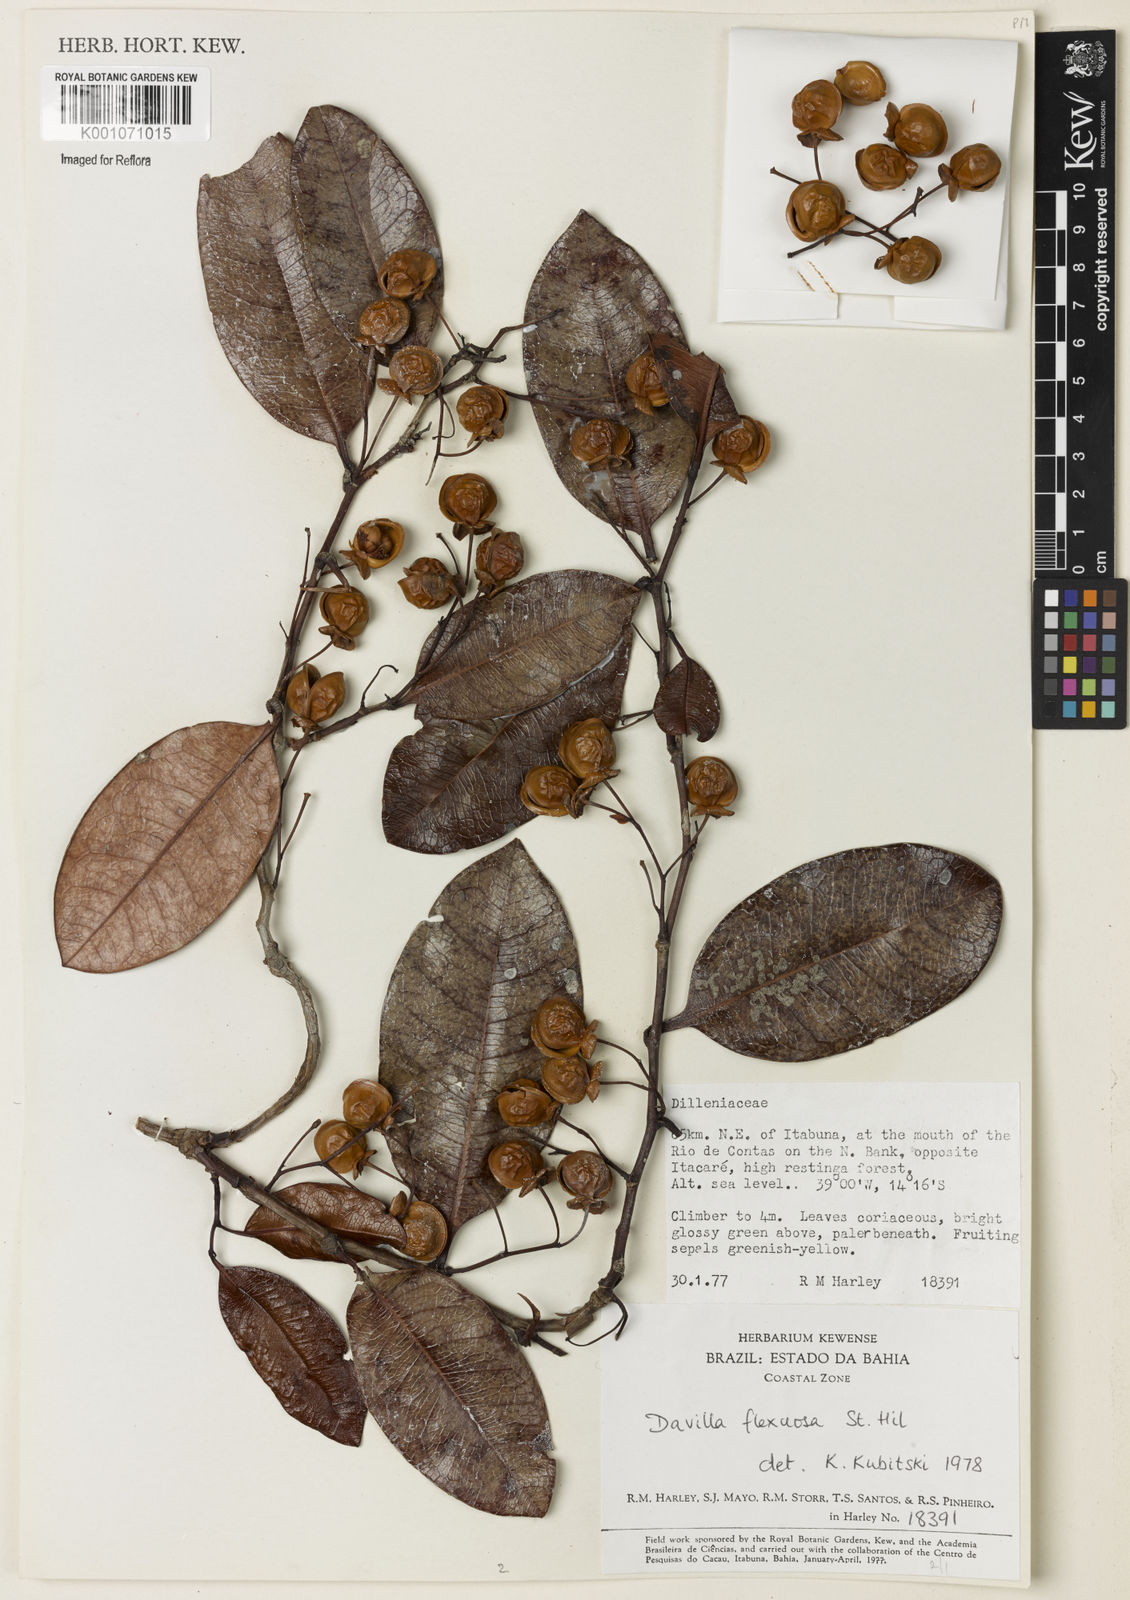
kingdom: Plantae
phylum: Tracheophyta
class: Magnoliopsida
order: Dilleniales
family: Dilleniaceae
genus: Davilla
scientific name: Davilla flexuosa
